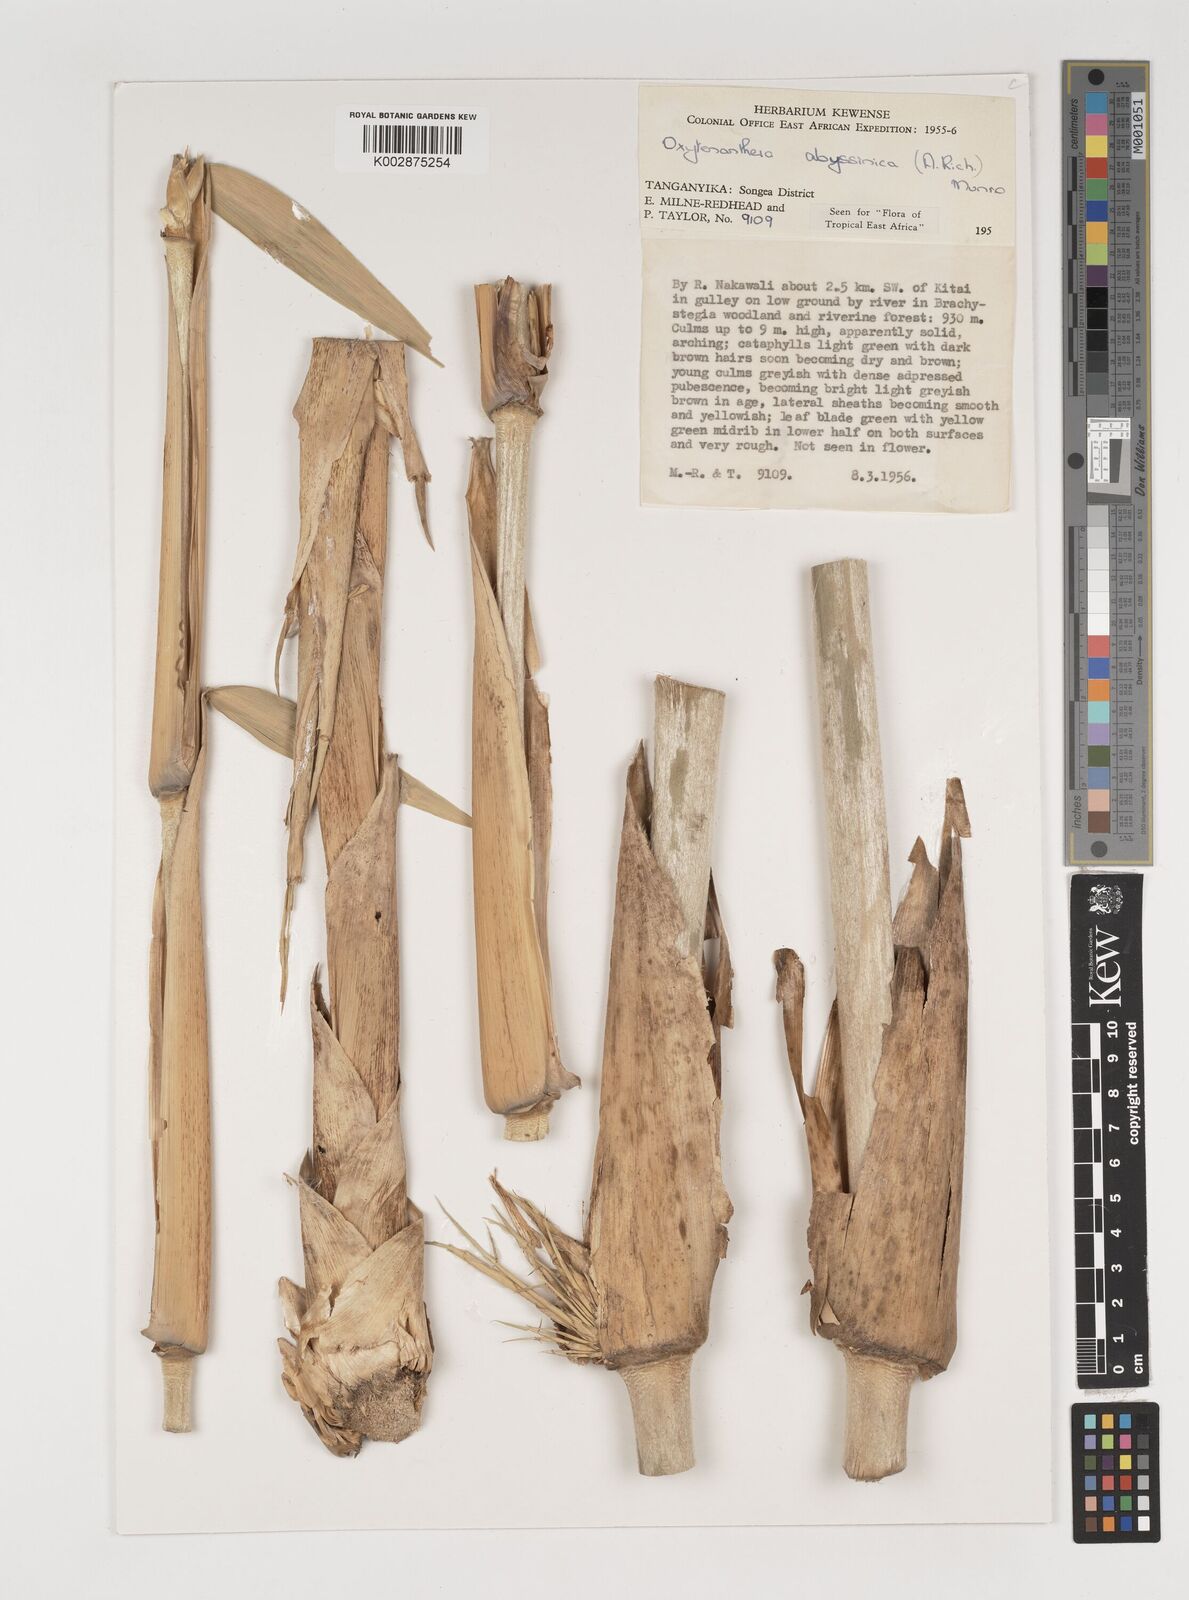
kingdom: Plantae
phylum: Tracheophyta
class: Liliopsida
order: Poales
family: Poaceae
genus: Oxytenanthera
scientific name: Oxytenanthera
